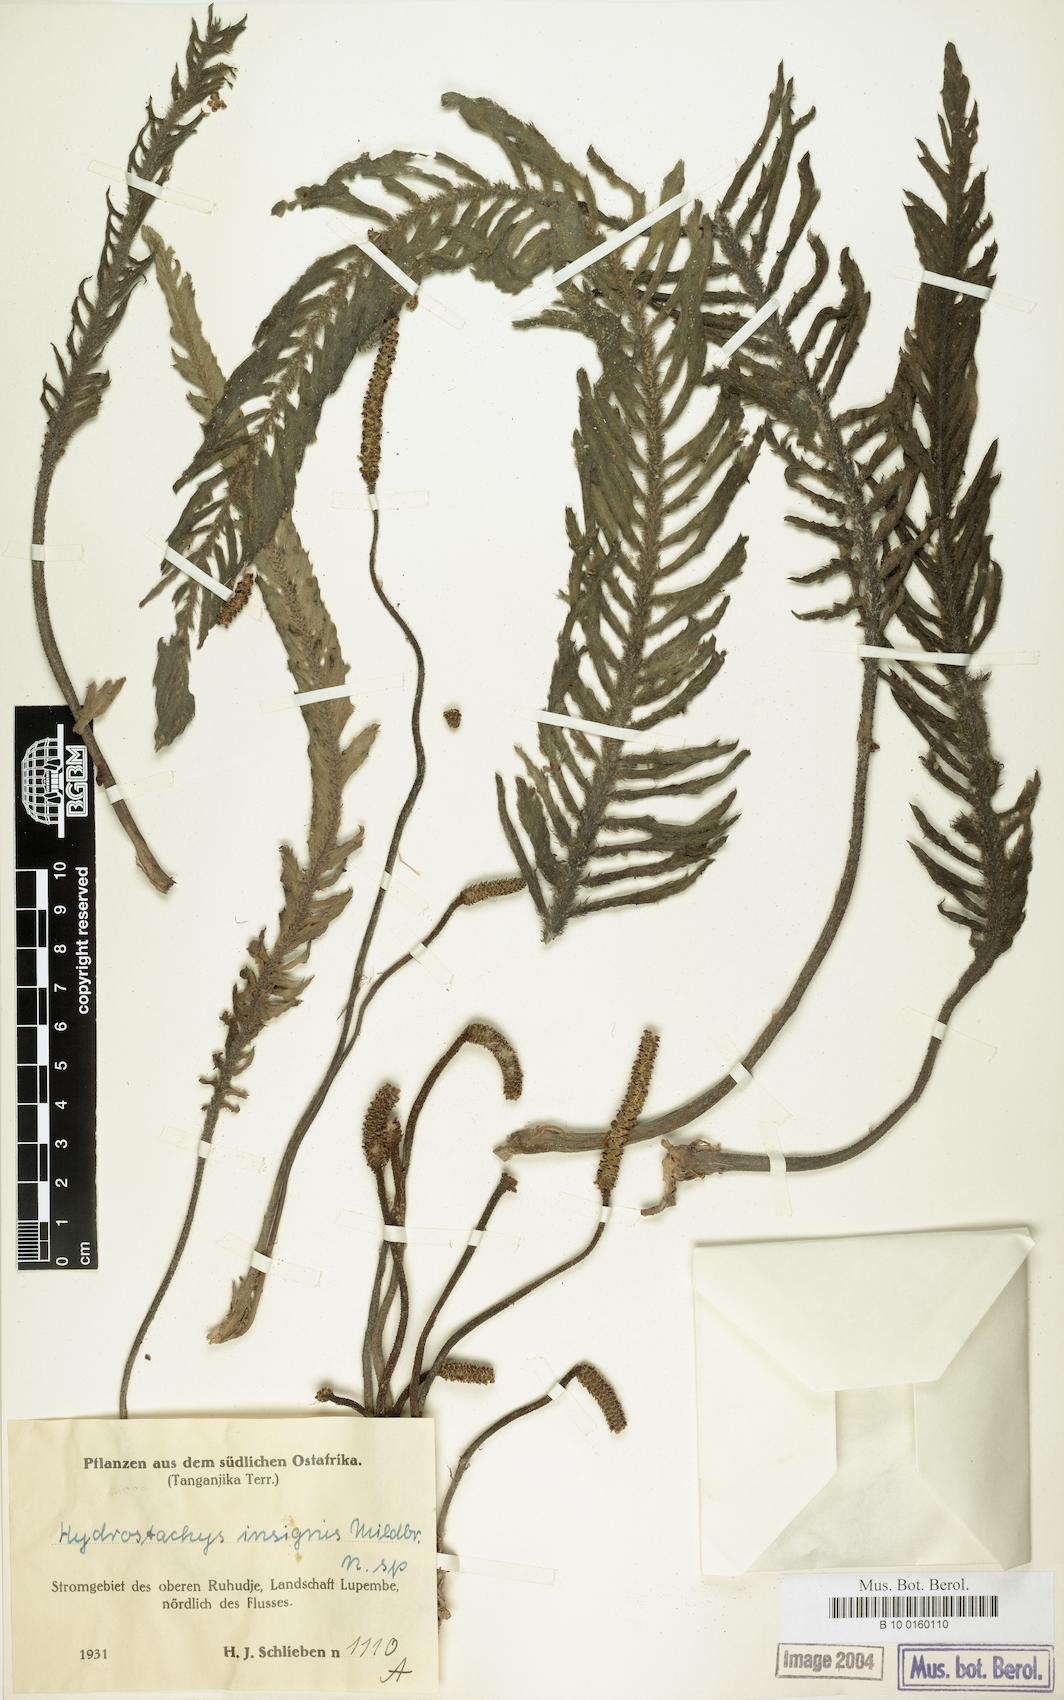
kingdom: Plantae
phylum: Tracheophyta
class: Magnoliopsida
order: Cornales
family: Hydrostachyaceae
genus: Hydrostachys
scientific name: Hydrostachys insignis
